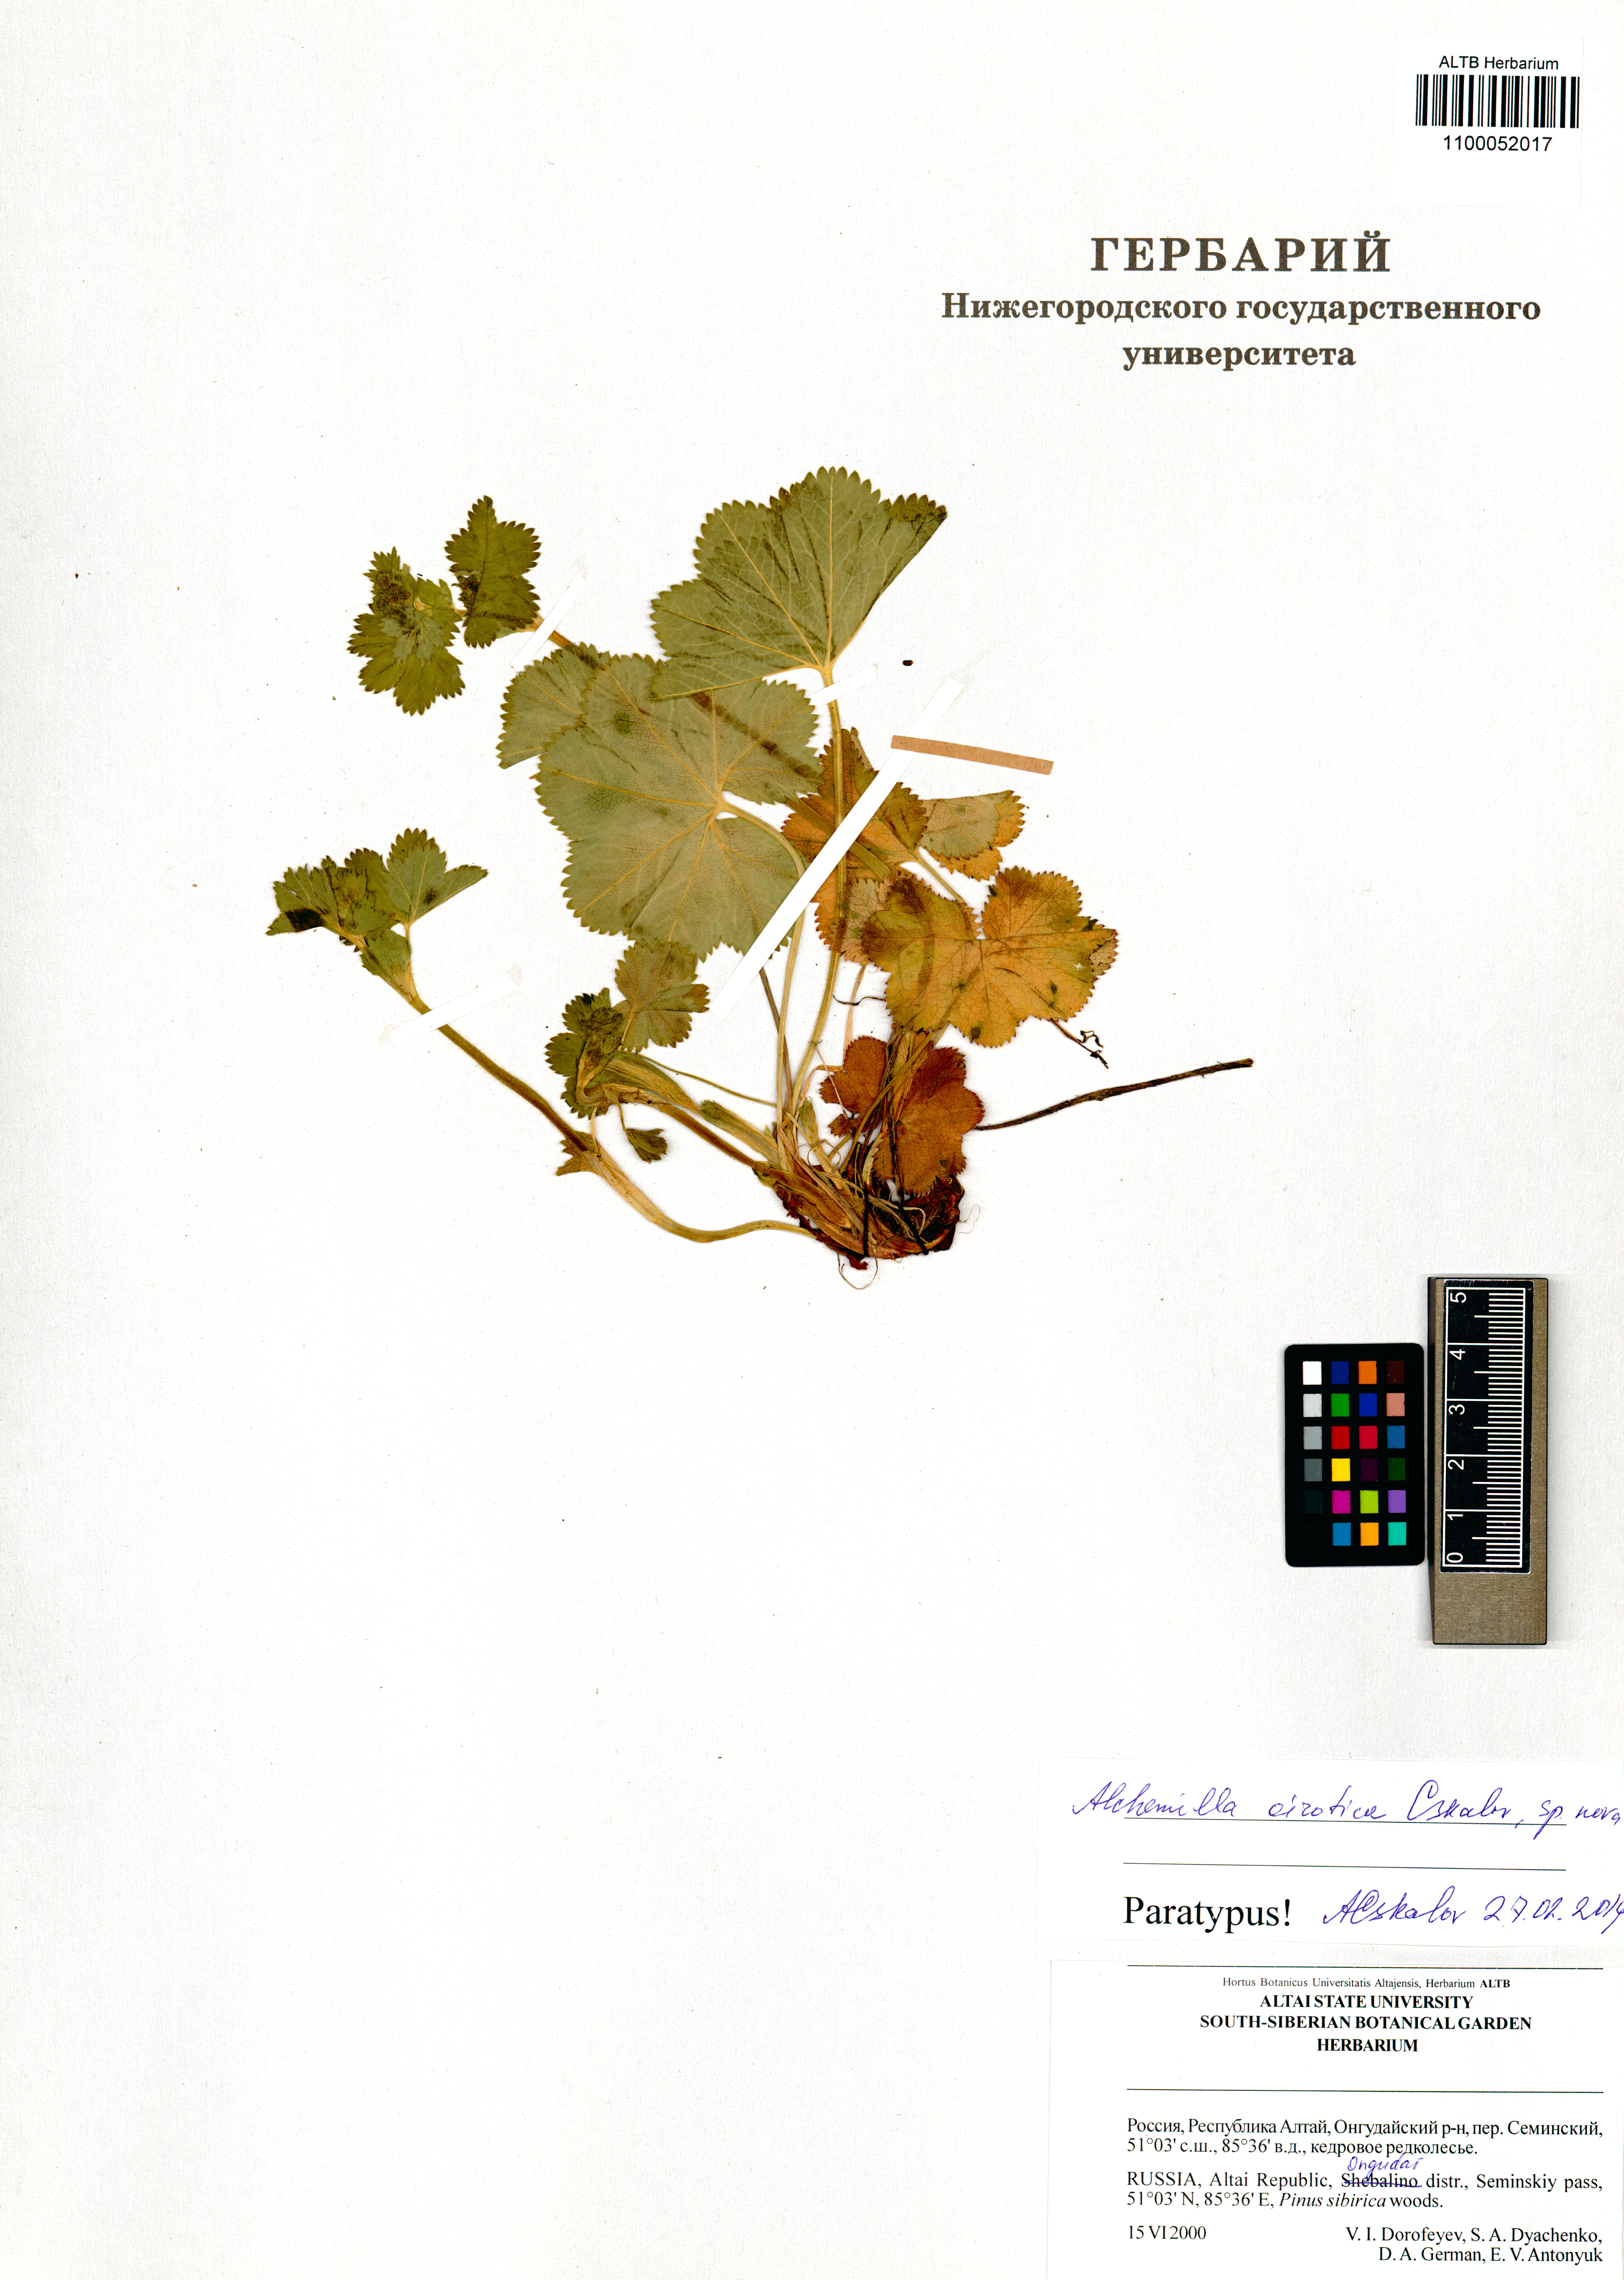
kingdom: Plantae
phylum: Tracheophyta
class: Magnoliopsida
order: Rosales
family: Rosaceae
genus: Alchemilla
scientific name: Alchemilla oirotica
